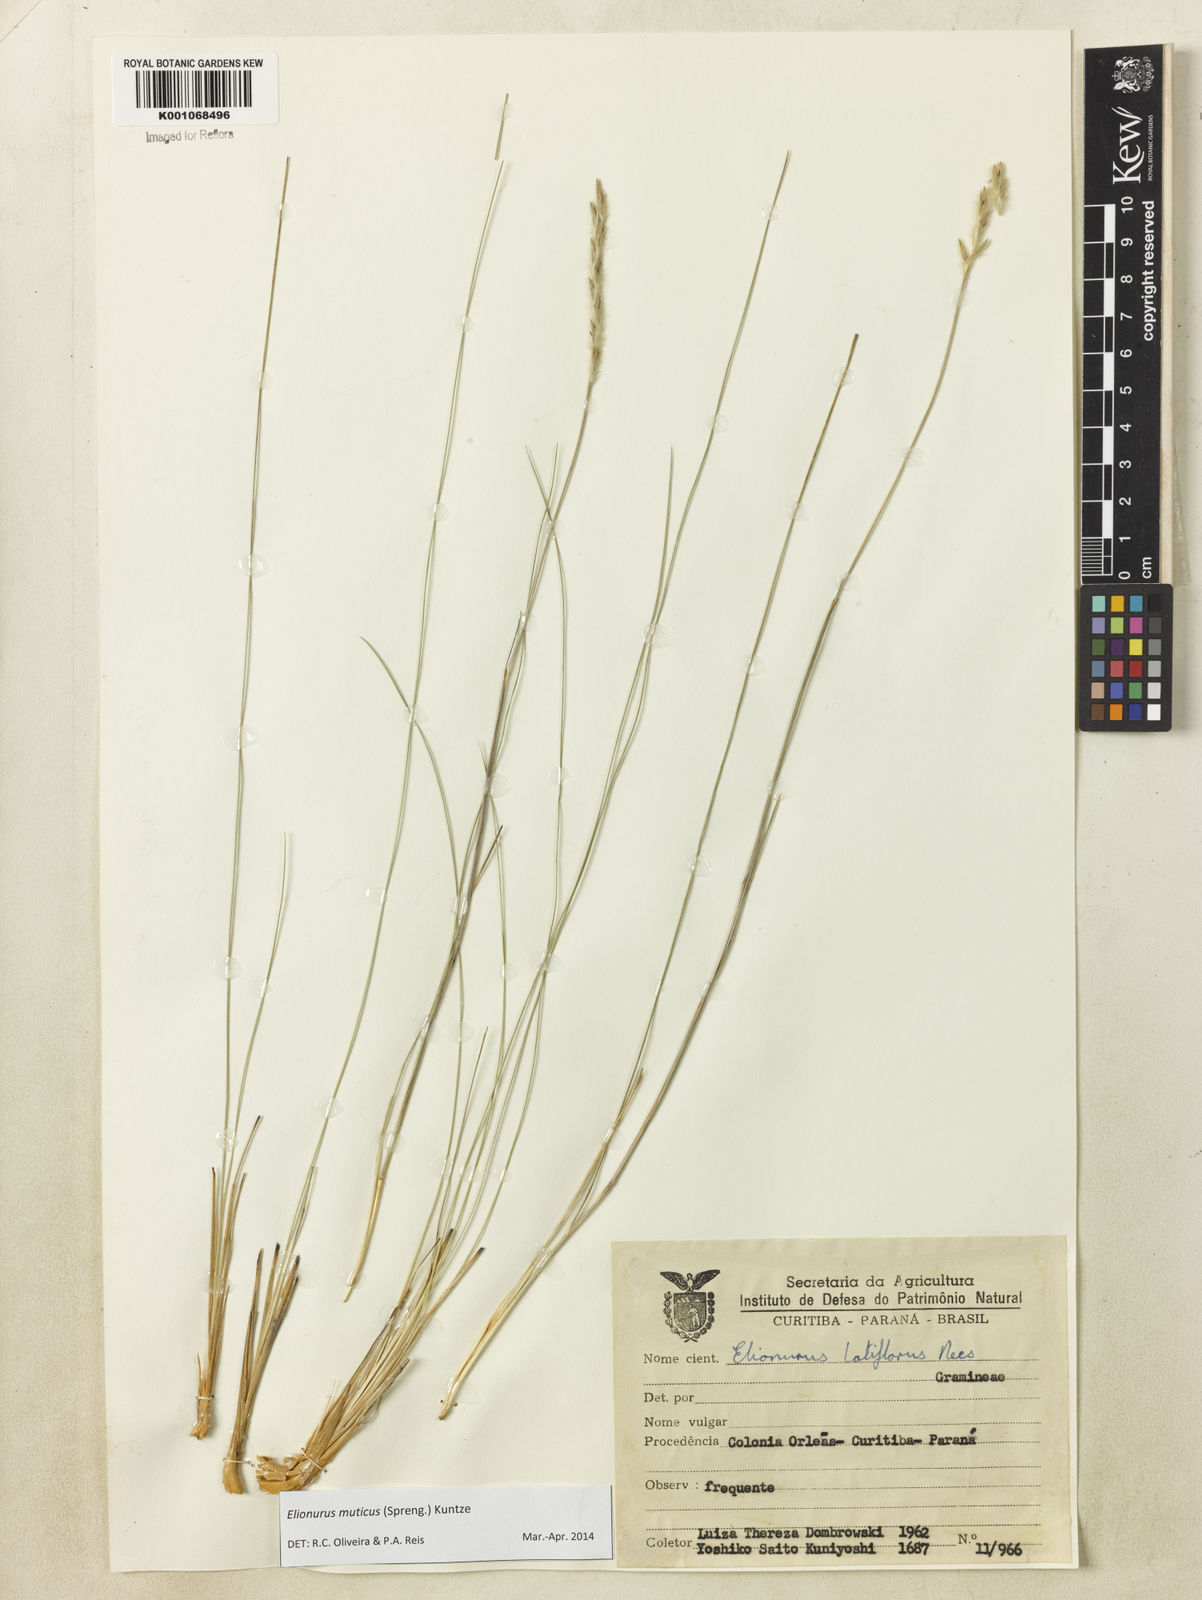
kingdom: Plantae
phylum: Tracheophyta
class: Liliopsida
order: Poales
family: Poaceae
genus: Elionurus
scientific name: Elionurus muticus
